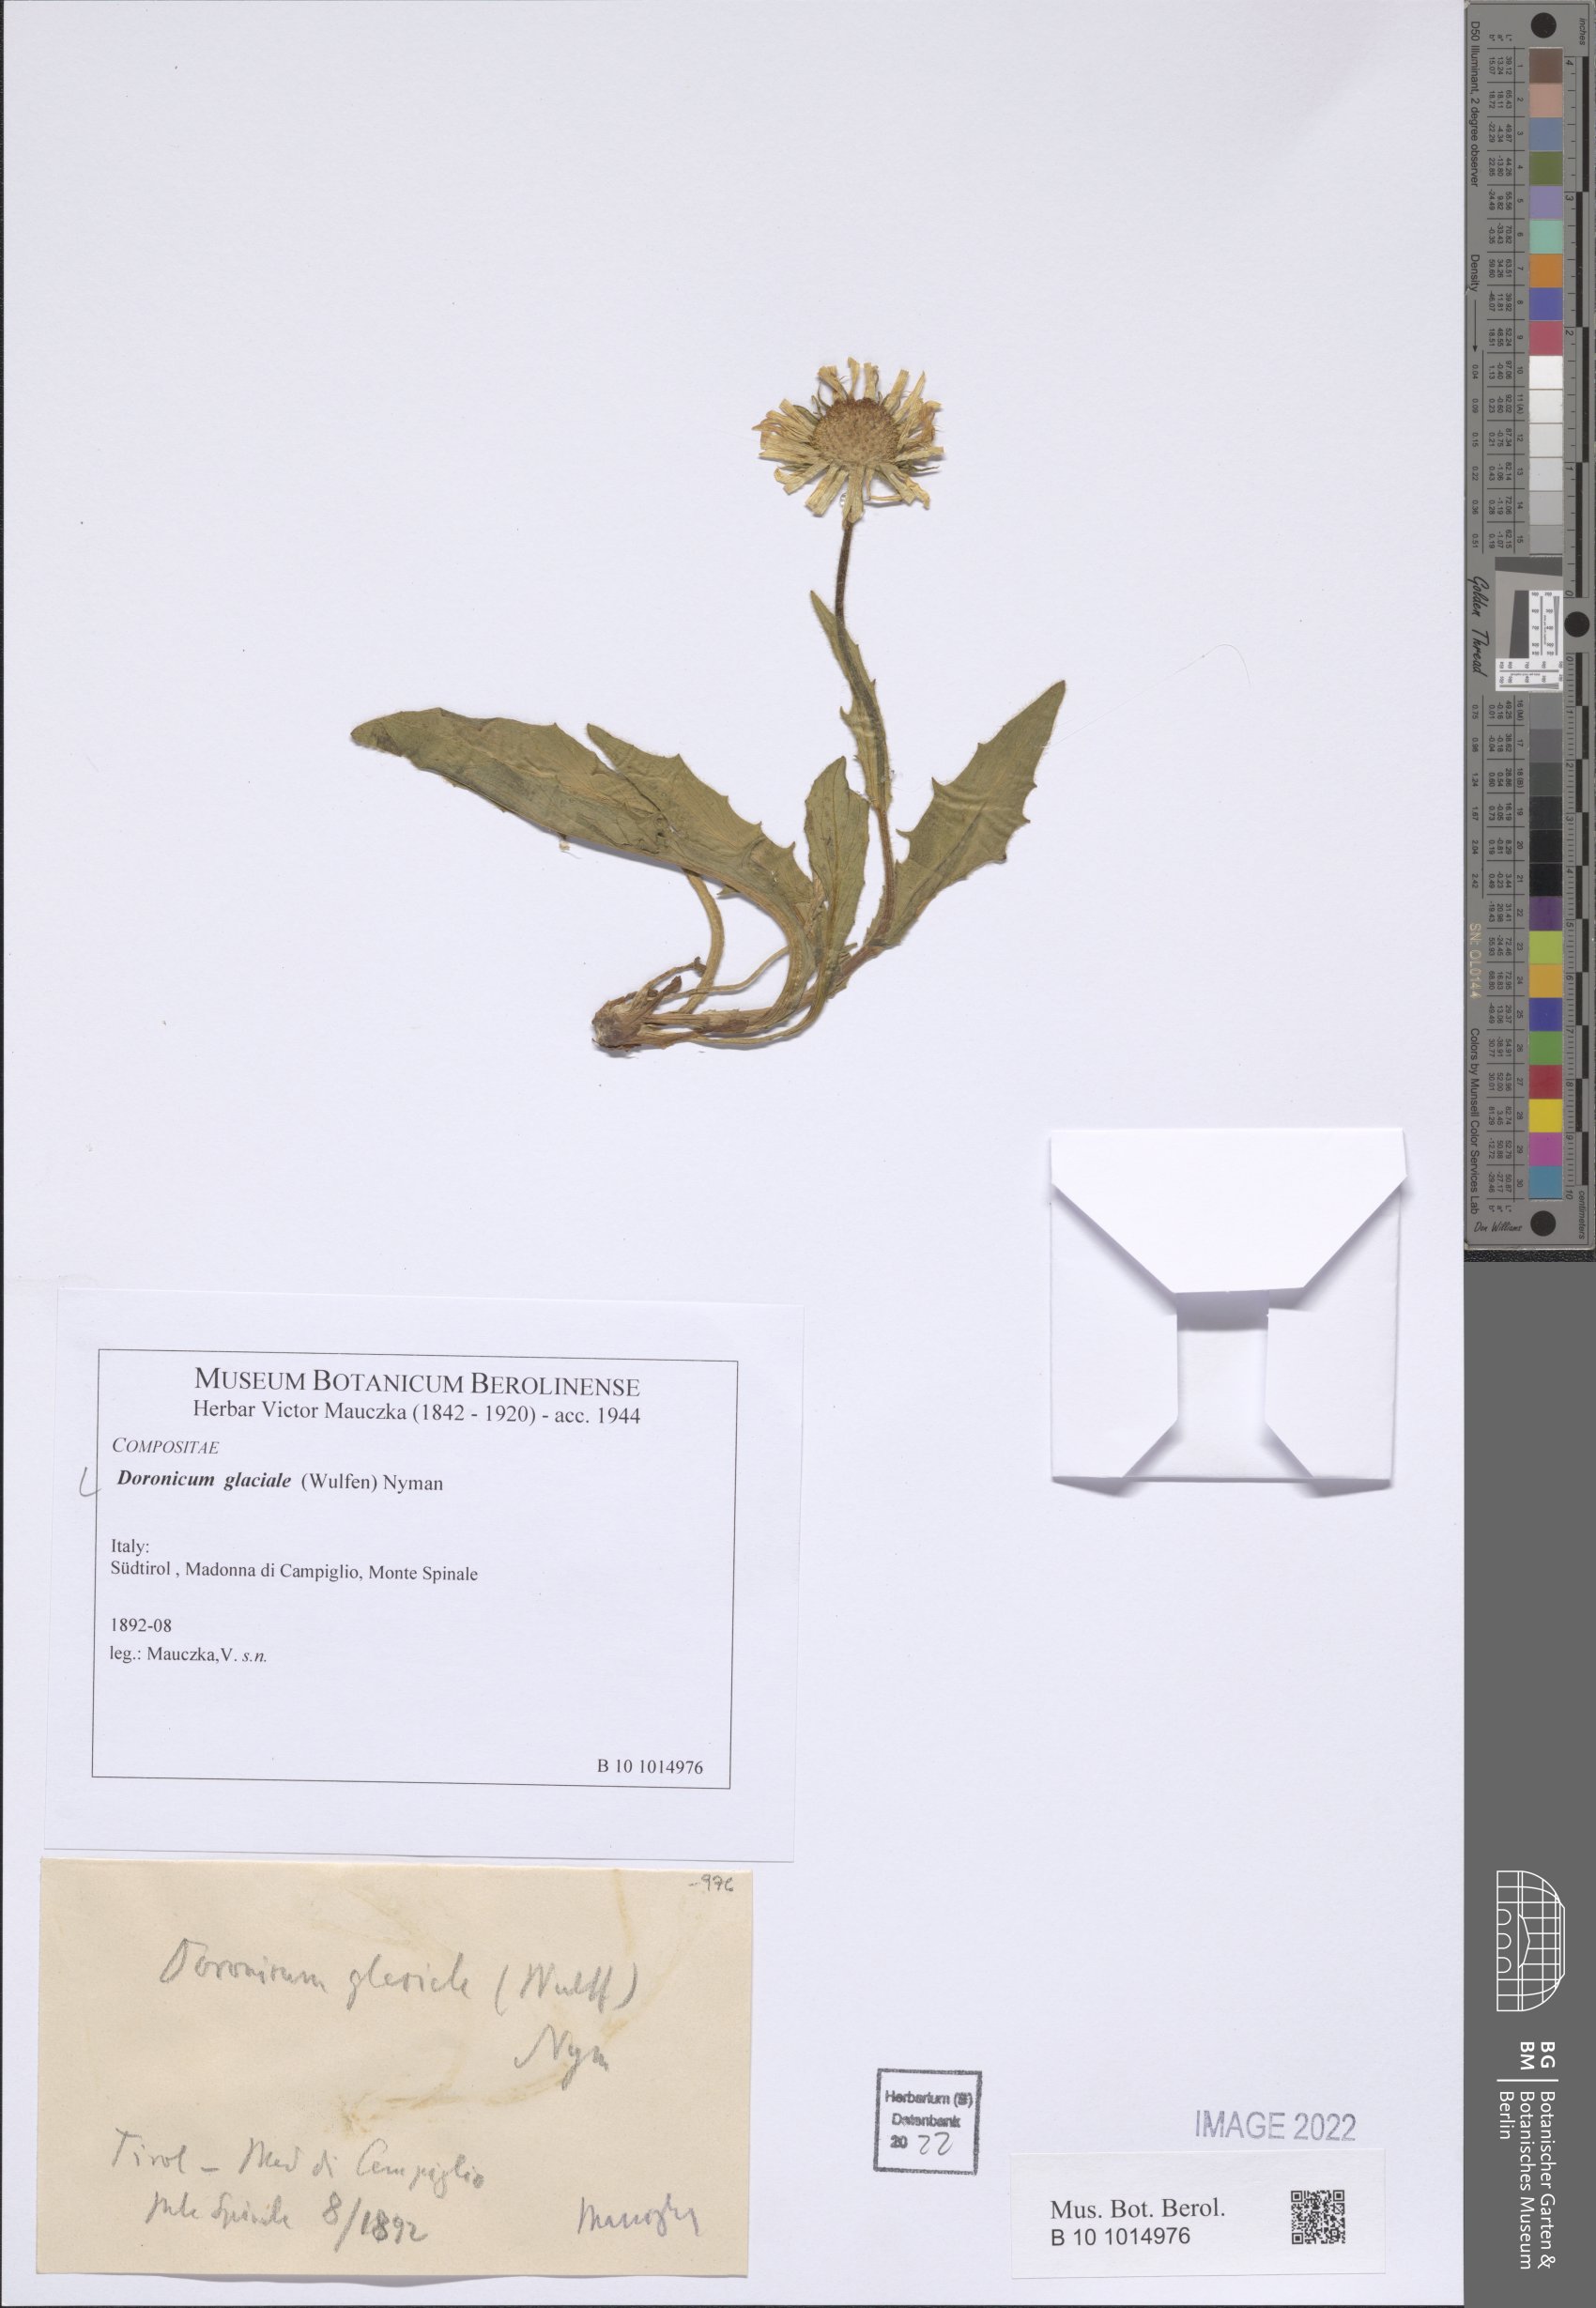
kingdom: Plantae
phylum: Tracheophyta
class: Magnoliopsida
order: Asterales
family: Asteraceae
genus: Doronicum
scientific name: Doronicum glaciale
